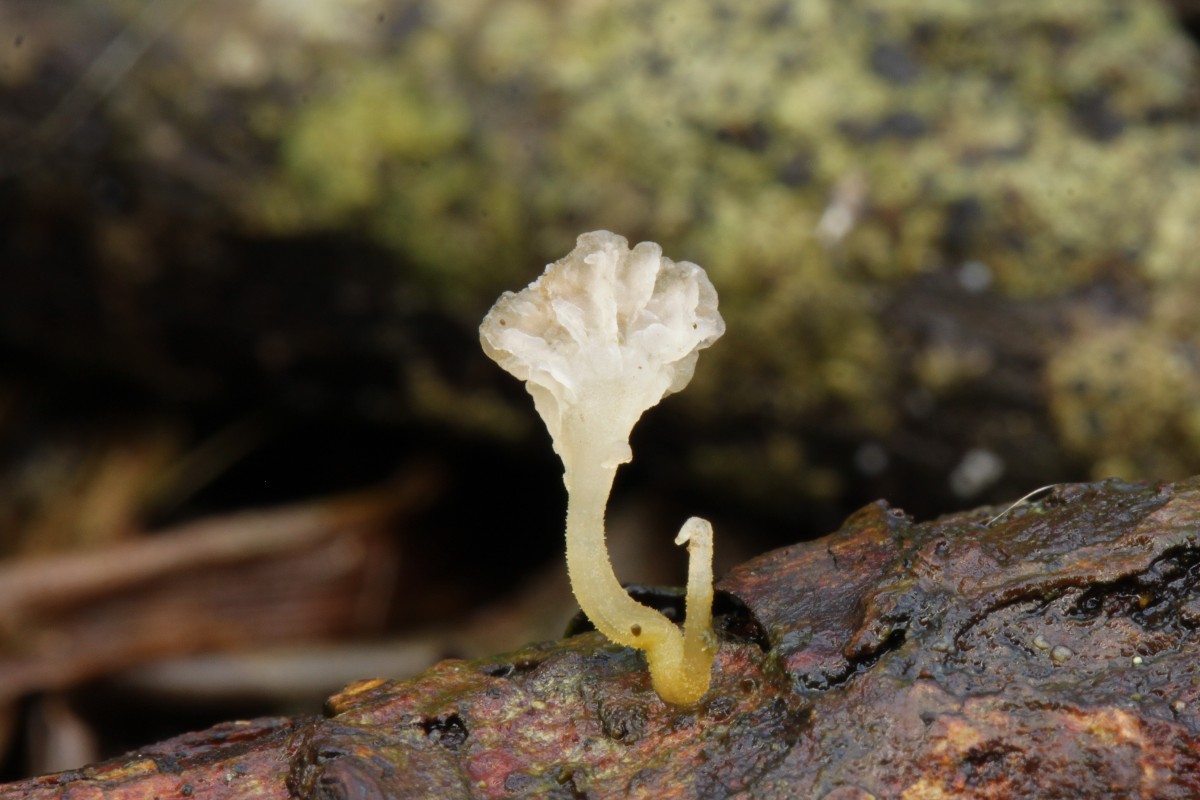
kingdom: Fungi
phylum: Basidiomycota
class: Agaricomycetes
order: Agaricales
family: Porotheleaceae
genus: Phloeomana
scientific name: Phloeomana speirea
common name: kvist-huesvamp
